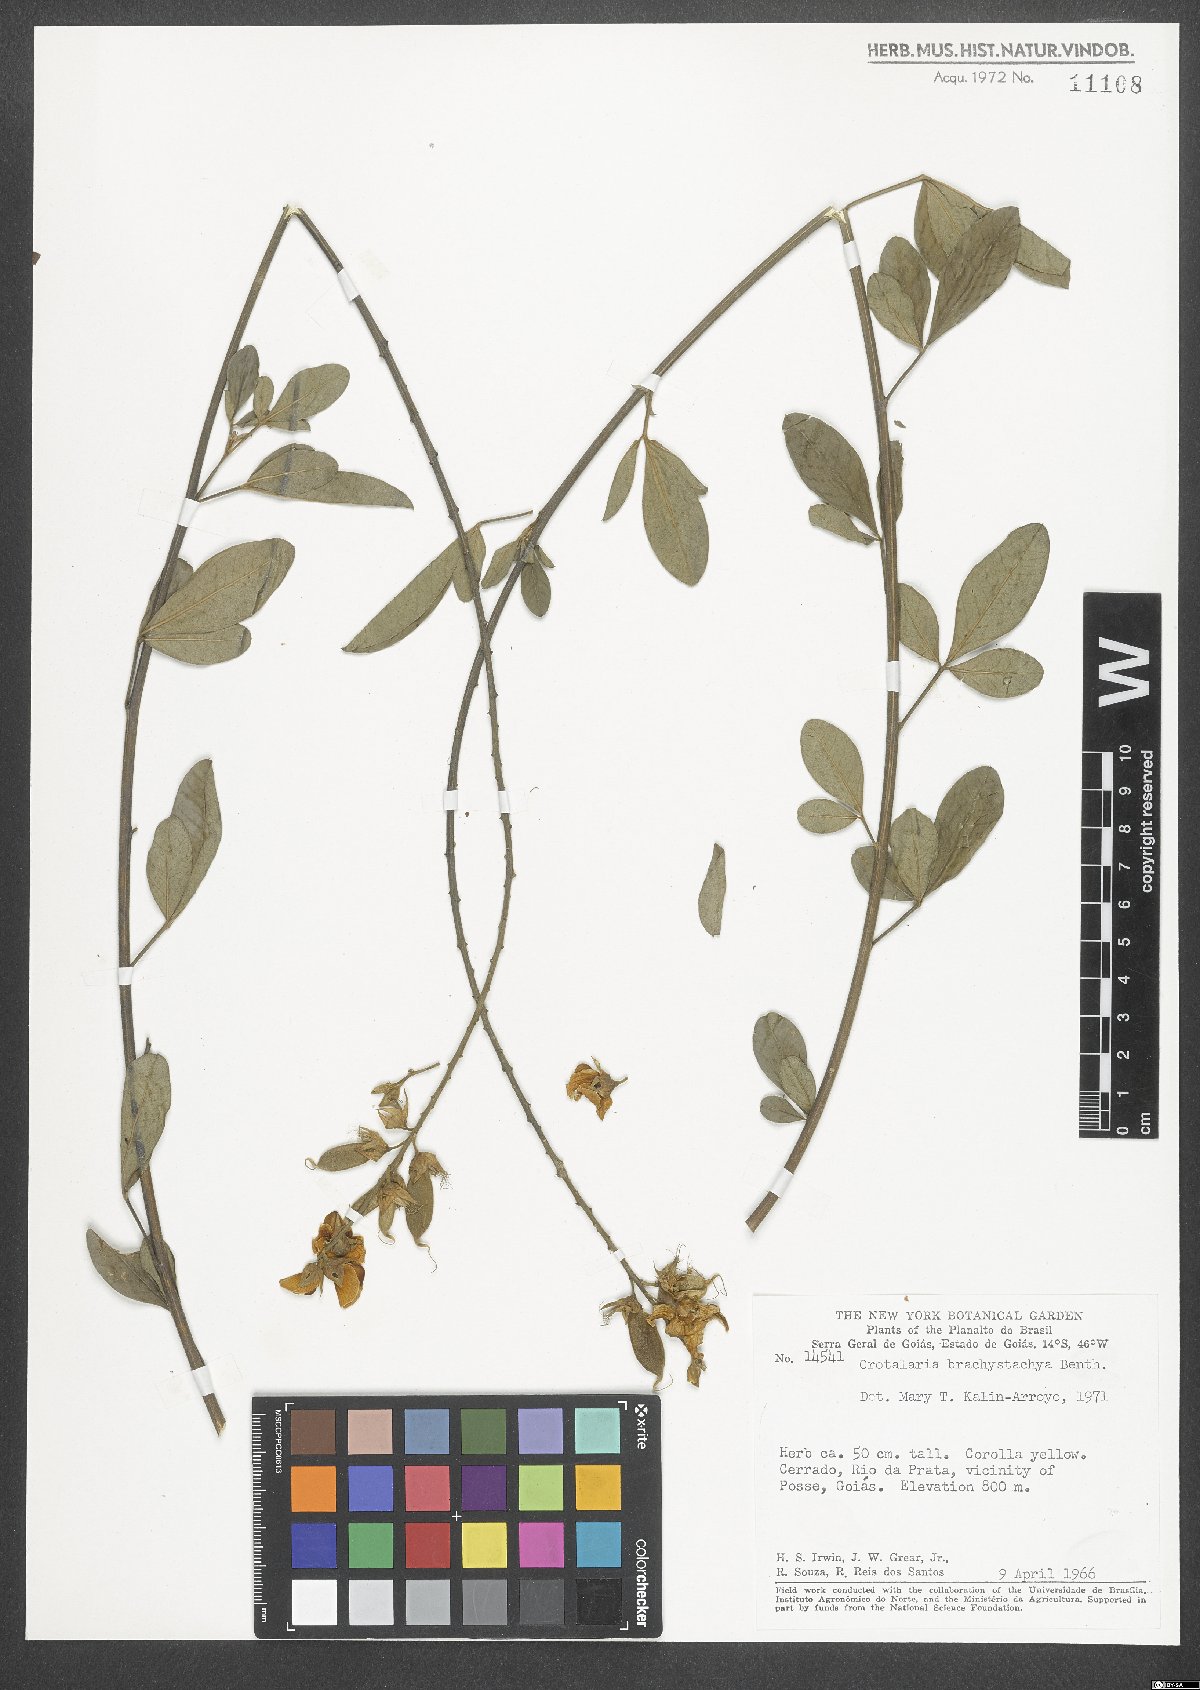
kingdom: Plantae
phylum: Tracheophyta
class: Magnoliopsida
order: Fabales
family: Fabaceae
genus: Crotalaria
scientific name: Crotalaria micans
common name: Caracas rattlebox
